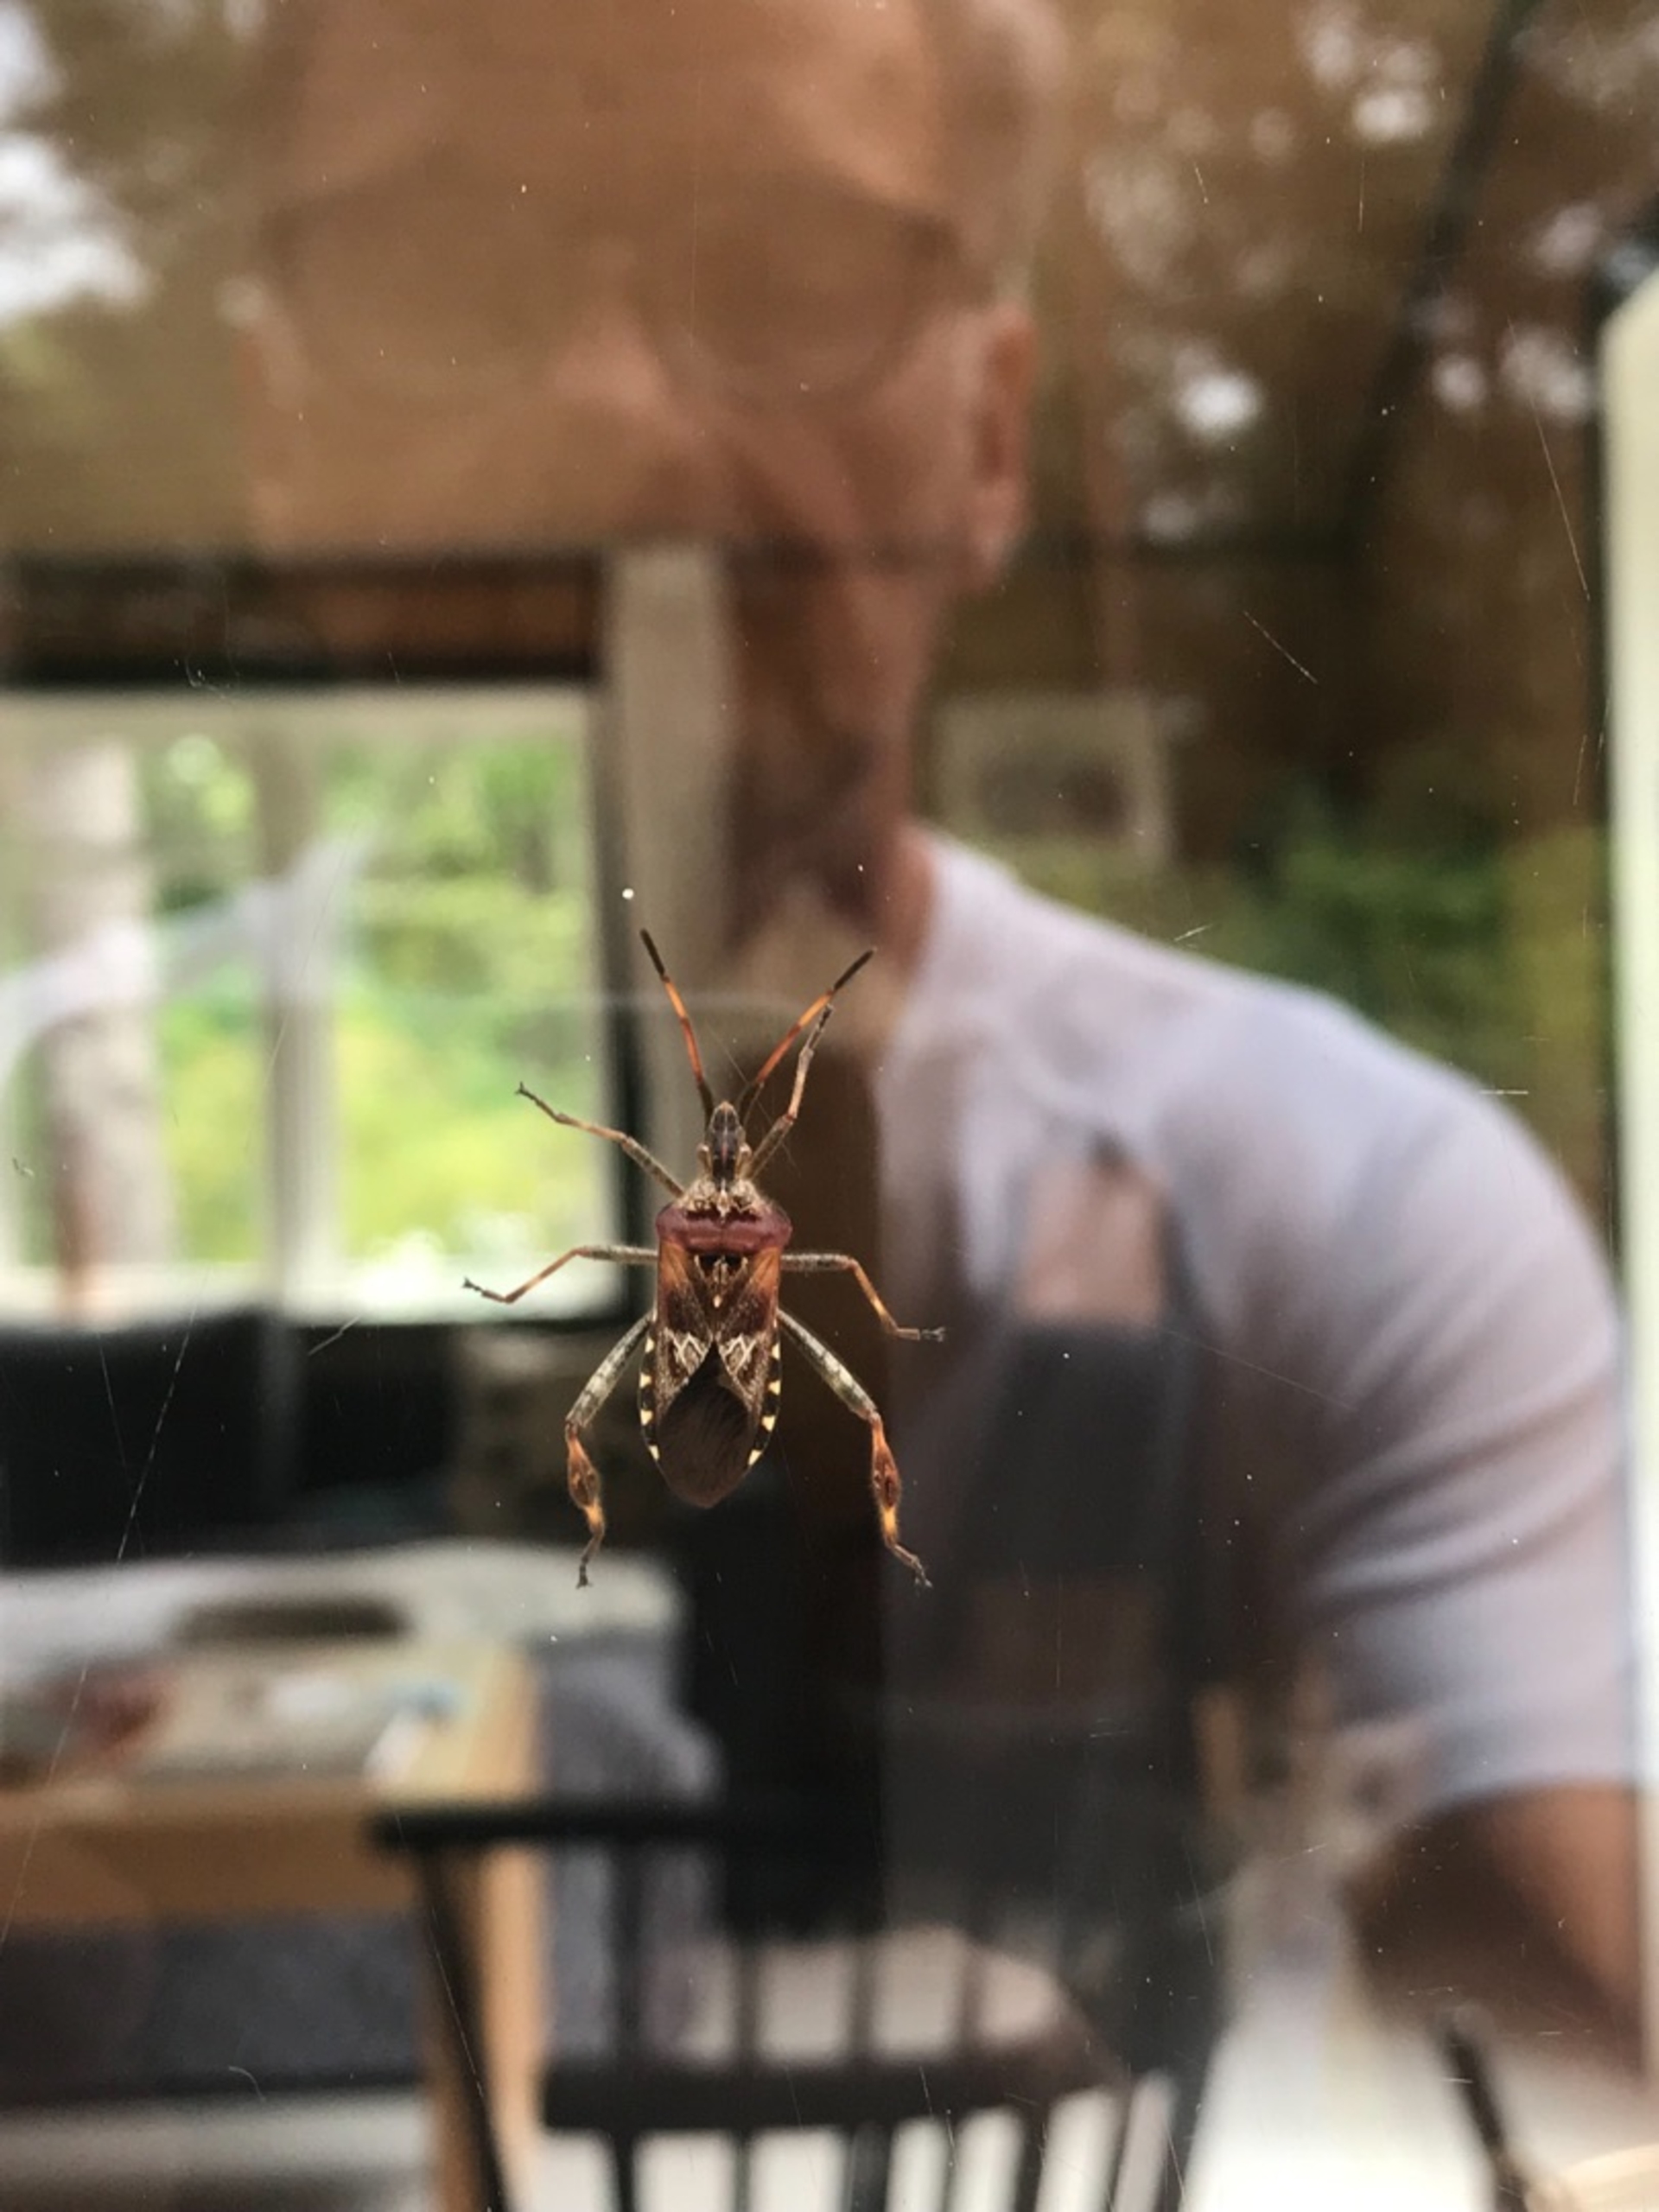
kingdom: Animalia
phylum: Arthropoda
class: Insecta
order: Hemiptera
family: Coreidae
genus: Leptoglossus
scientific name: Leptoglossus occidentalis
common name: Amerikansk fyrretæge
